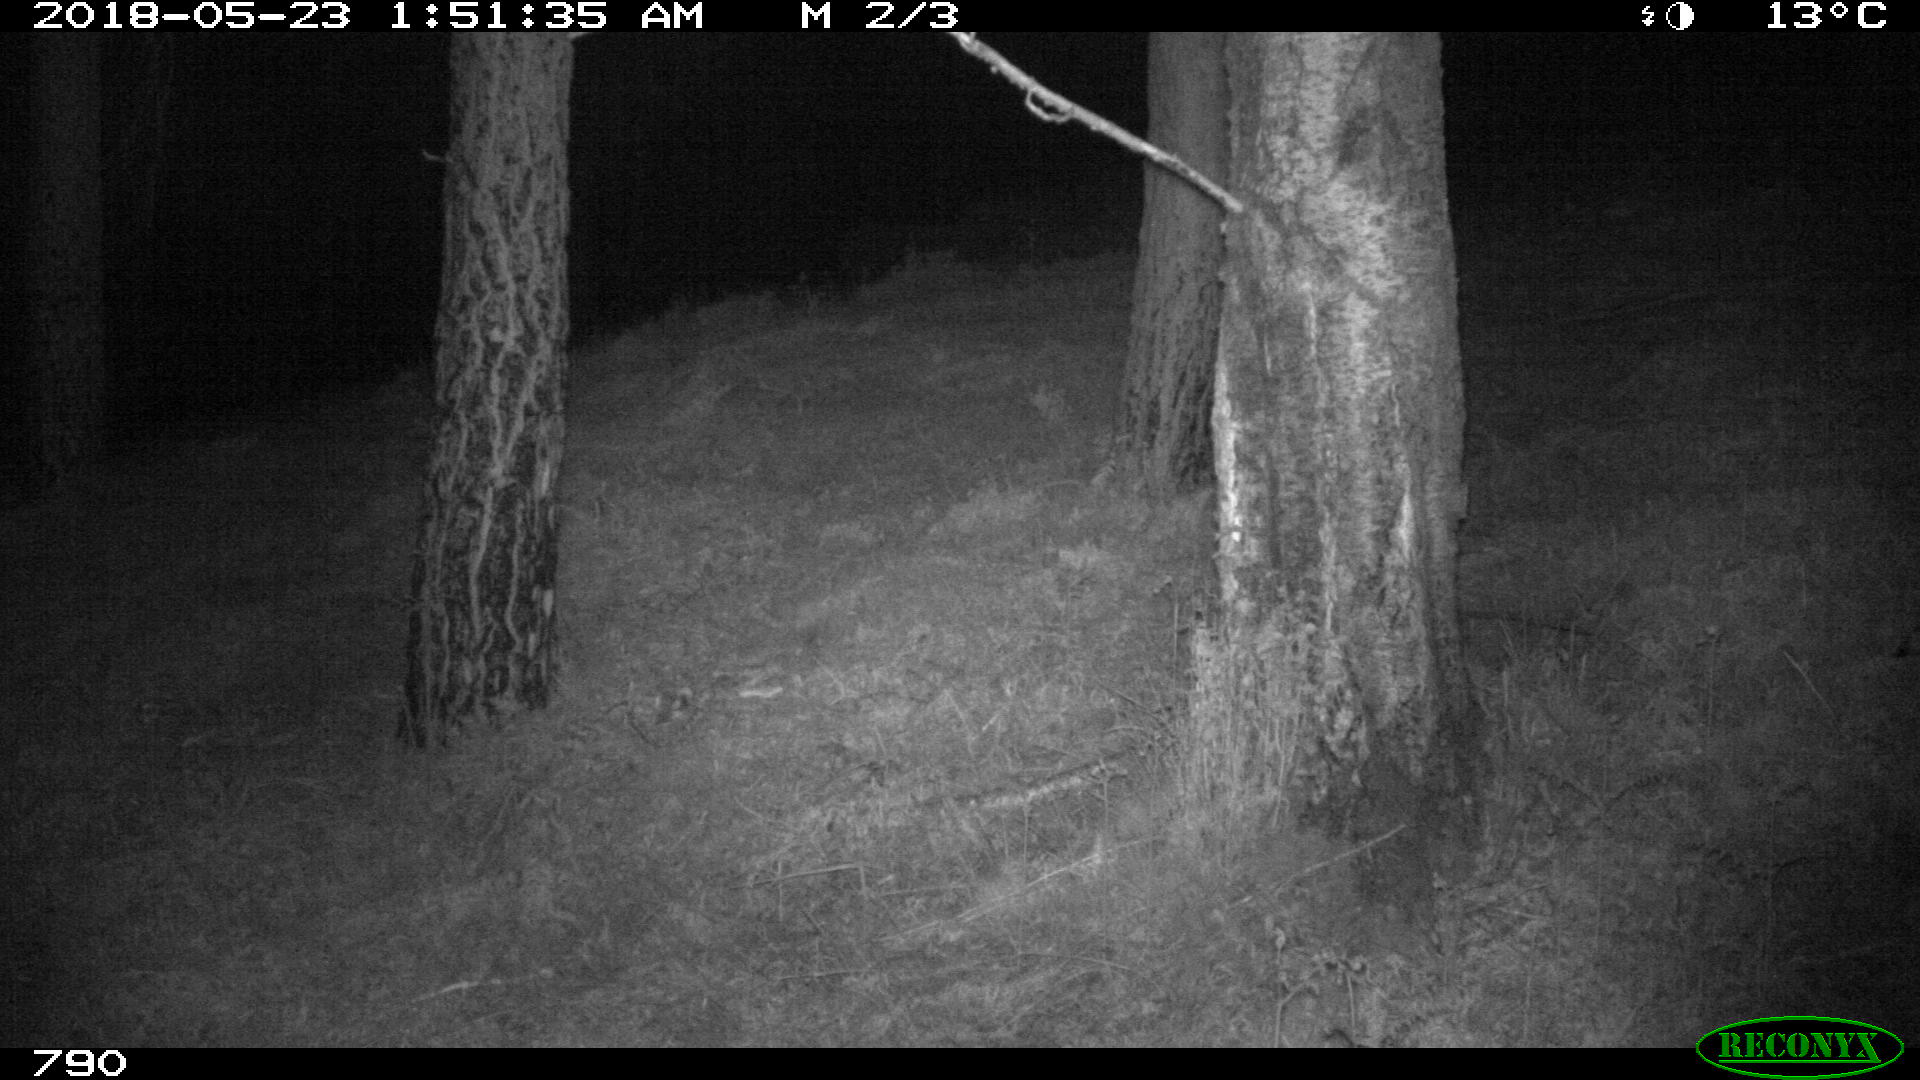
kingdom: Animalia
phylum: Chordata
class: Mammalia
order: Artiodactyla
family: Cervidae
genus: Capreolus
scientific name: Capreolus capreolus
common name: Western roe deer
